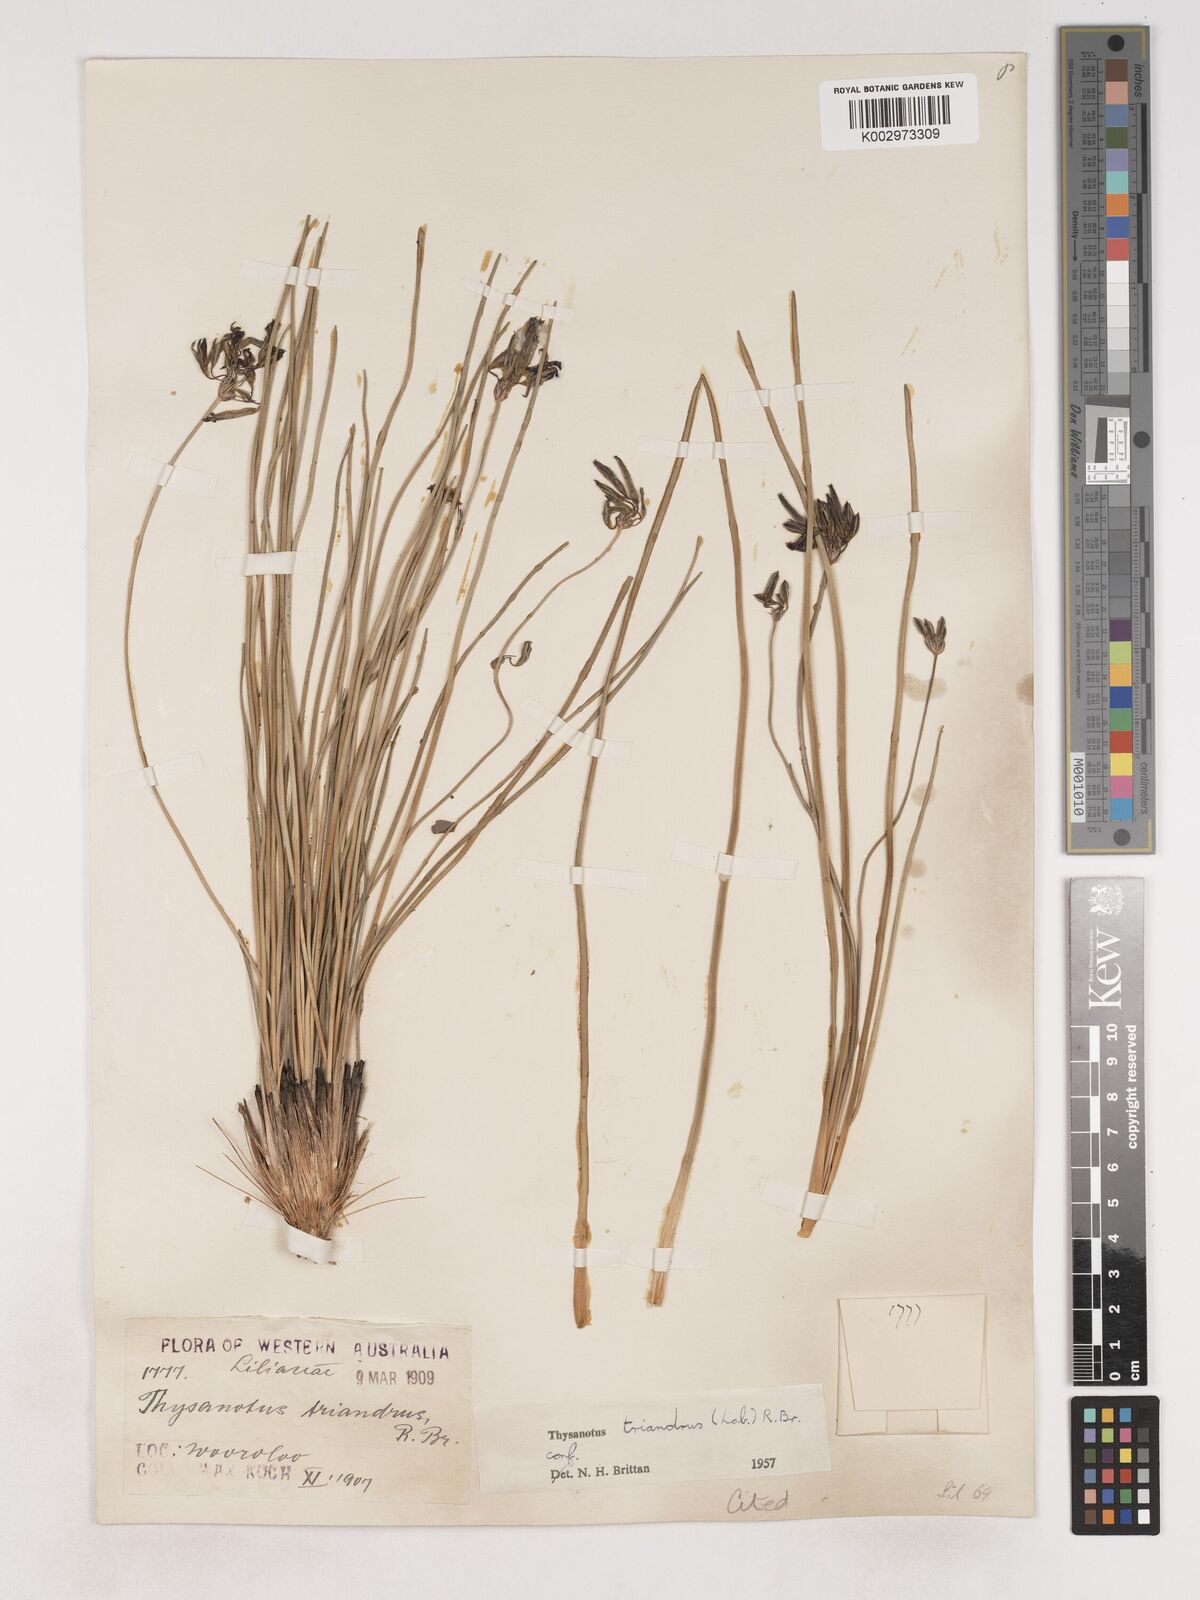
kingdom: Plantae
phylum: Tracheophyta
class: Liliopsida
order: Asparagales
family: Asparagaceae
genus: Thysanotus
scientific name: Thysanotus triandrus
